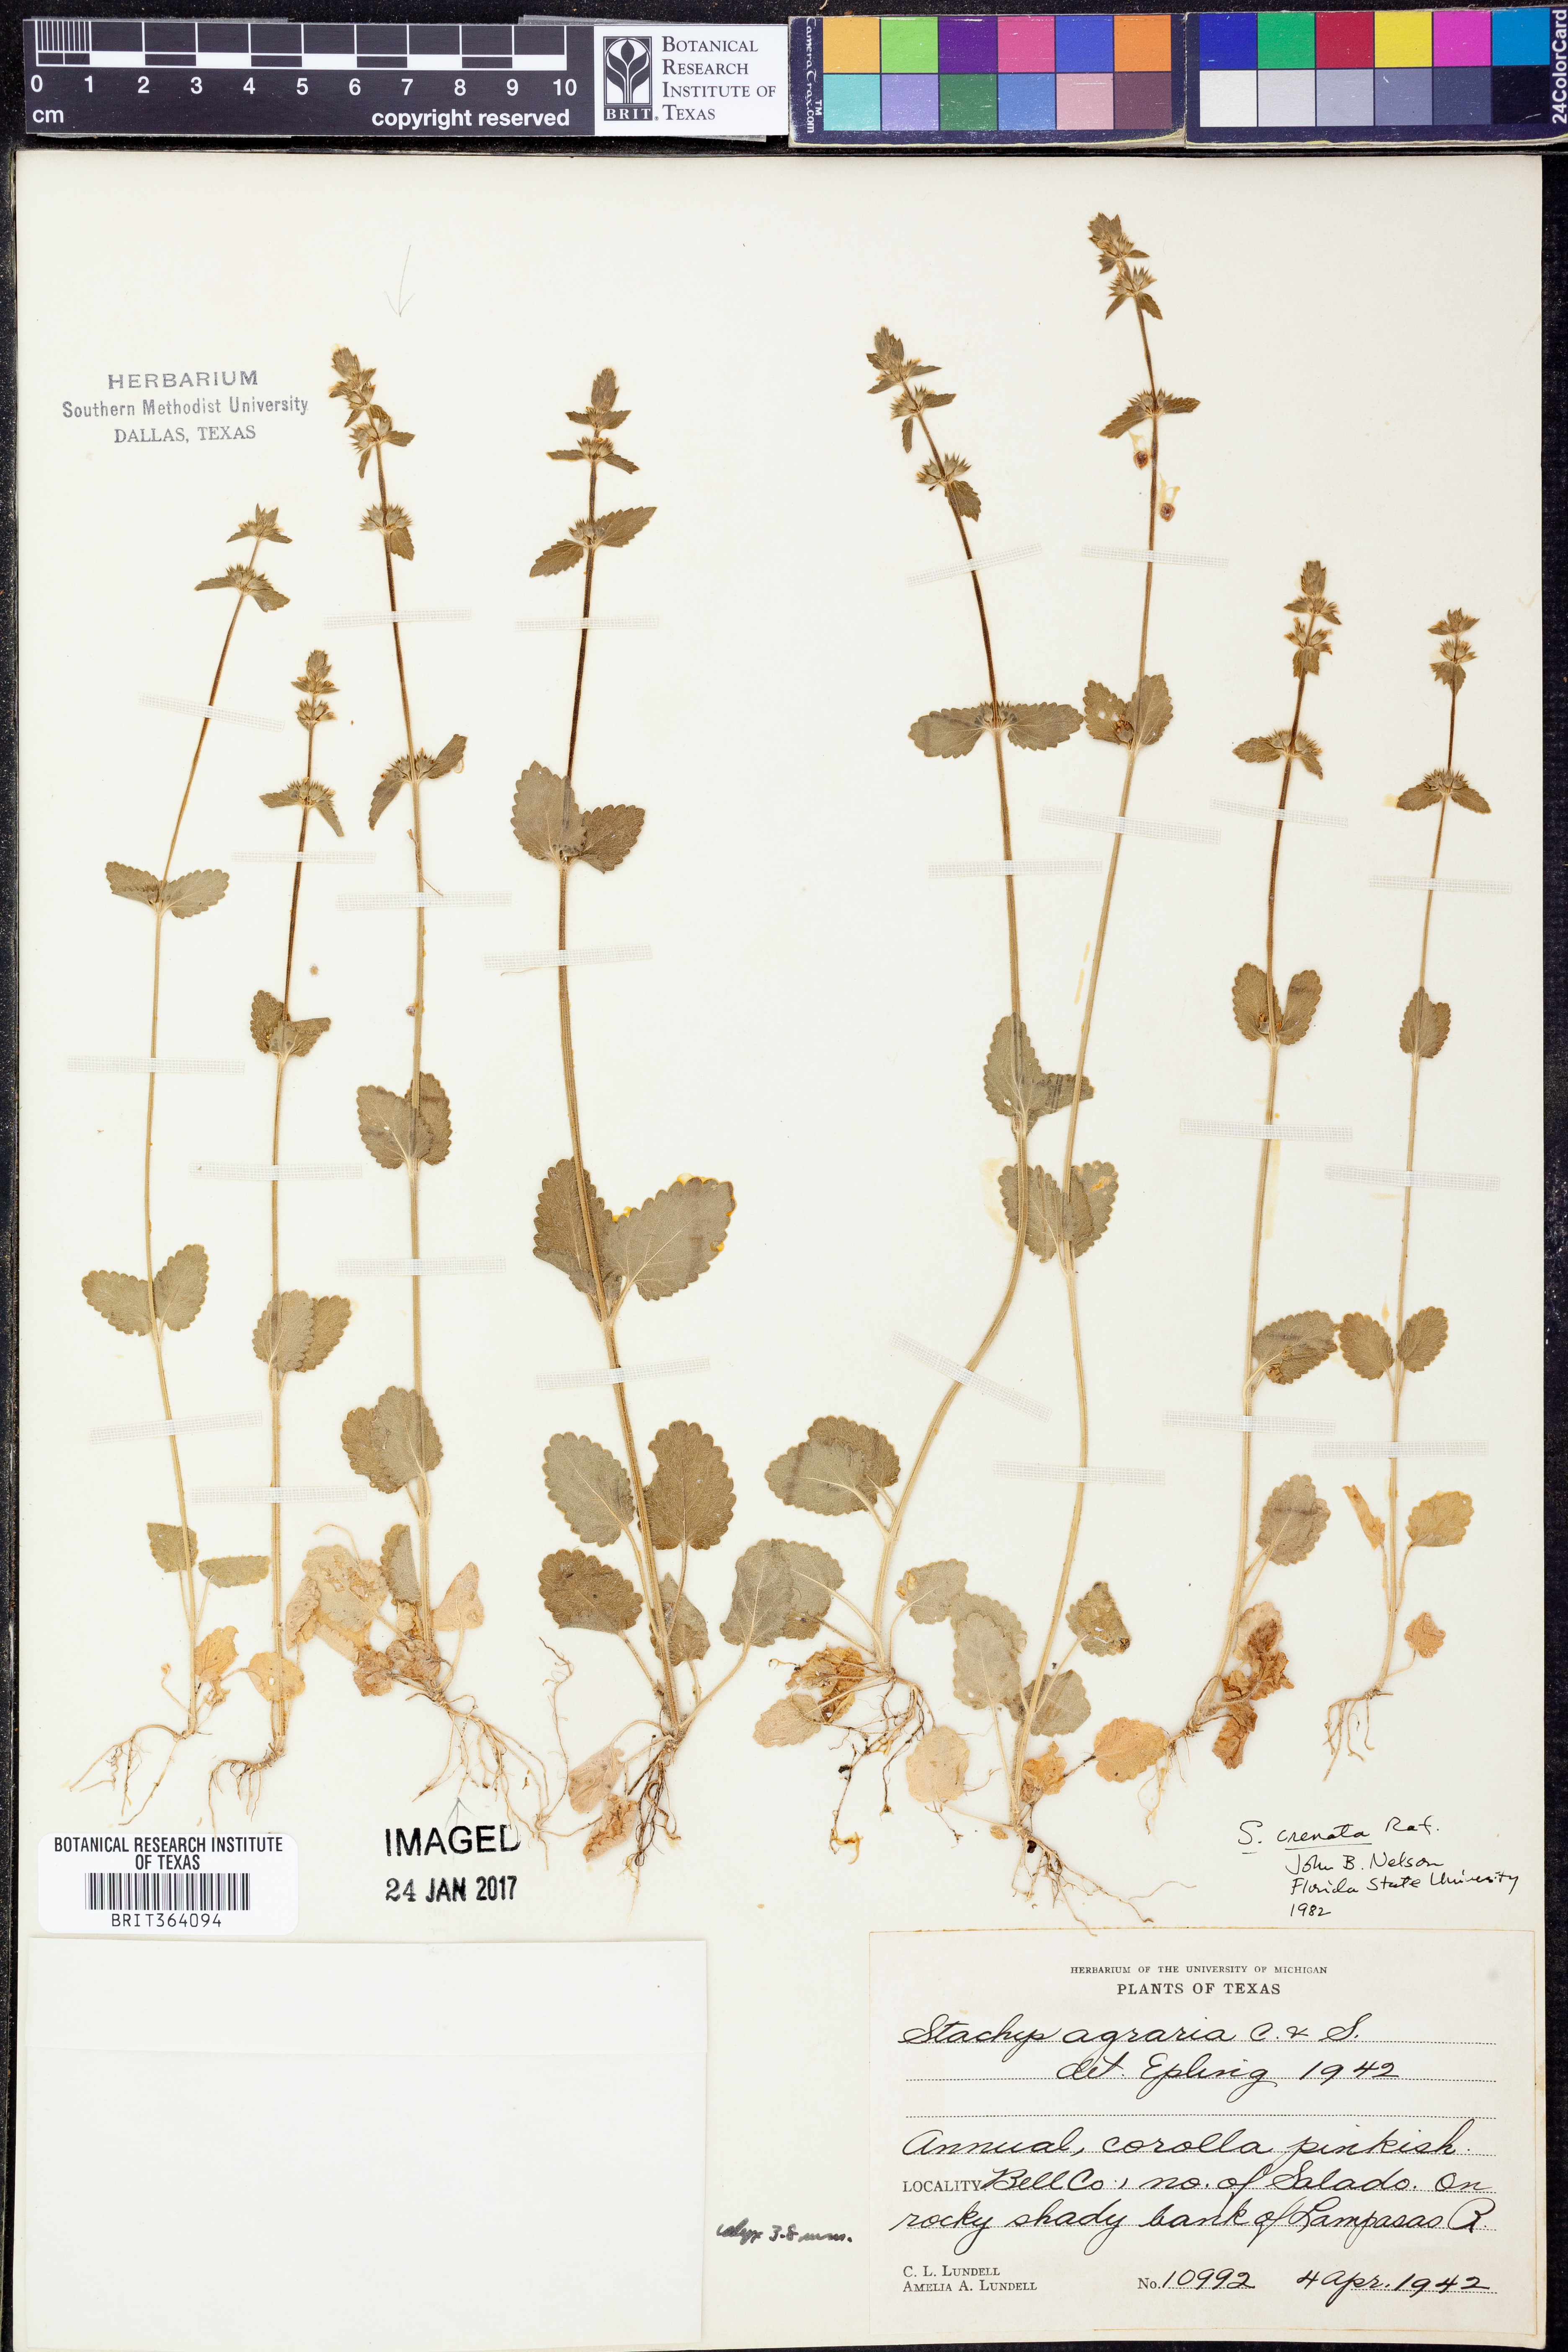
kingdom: Plantae
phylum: Tracheophyta
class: Magnoliopsida
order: Lamiales
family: Lamiaceae
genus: Stachys
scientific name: Stachys agraria
